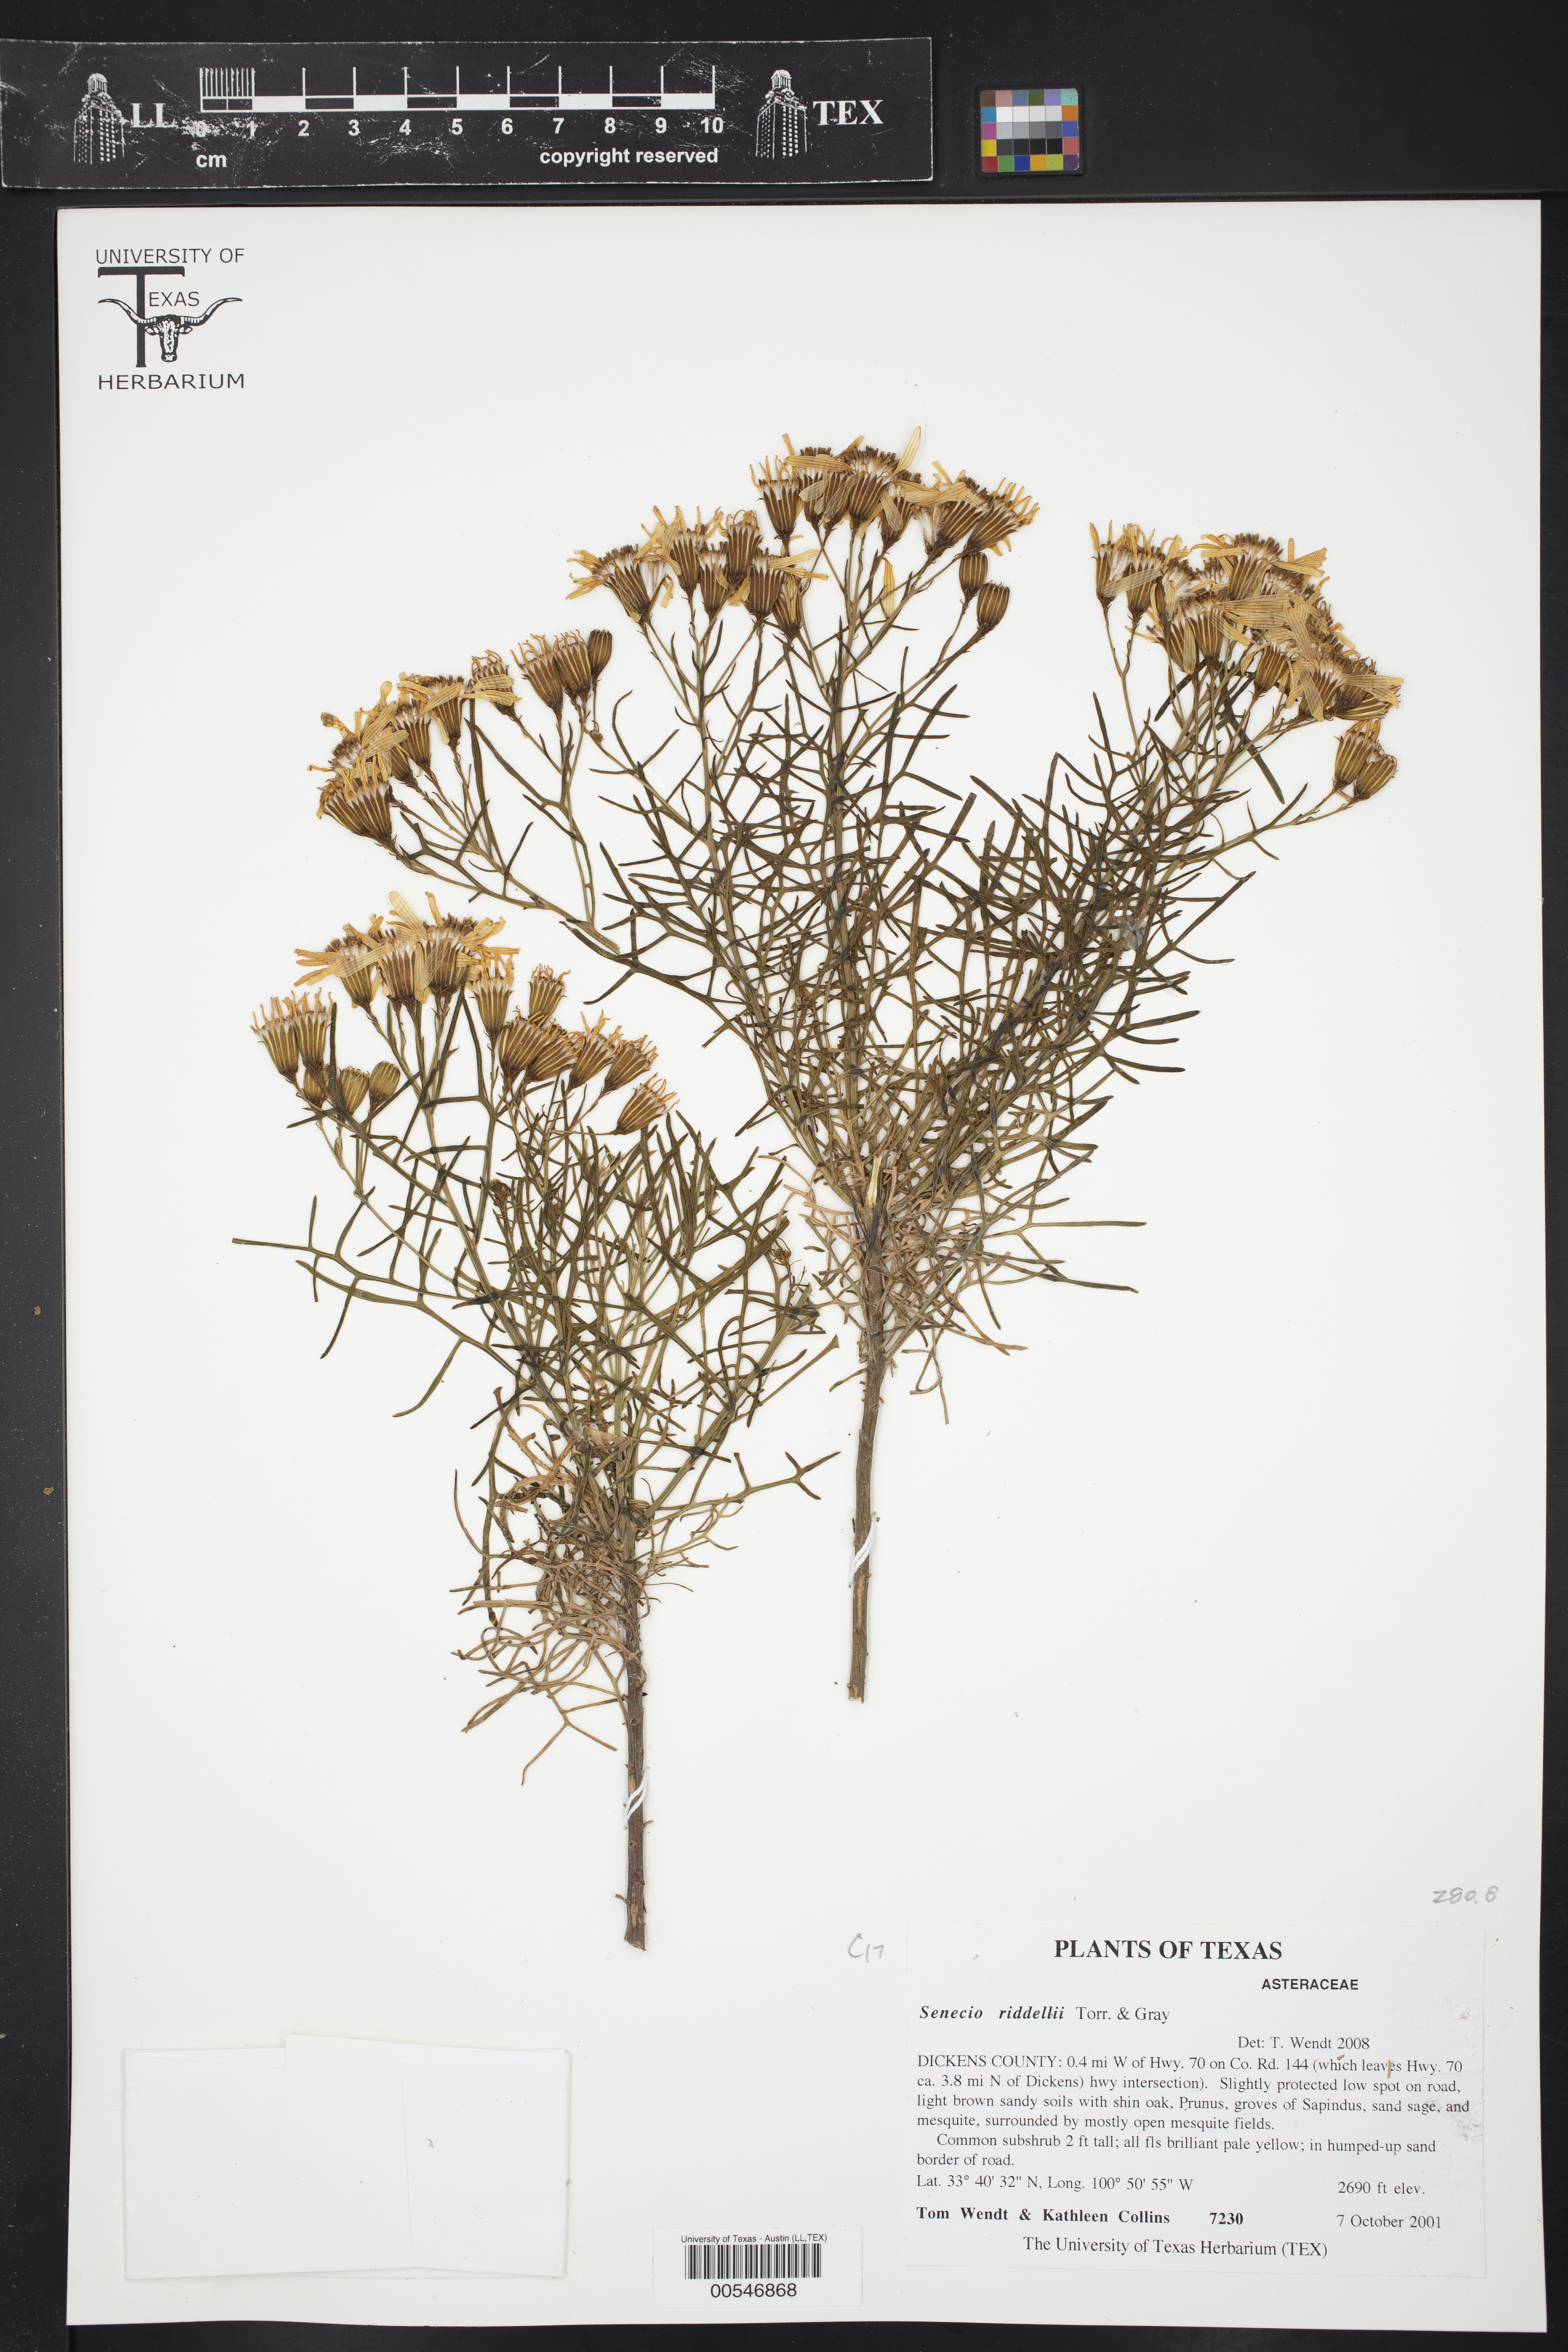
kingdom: Plantae
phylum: Tracheophyta
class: Magnoliopsida
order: Asterales
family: Asteraceae
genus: Senecio
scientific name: Senecio riddellii
